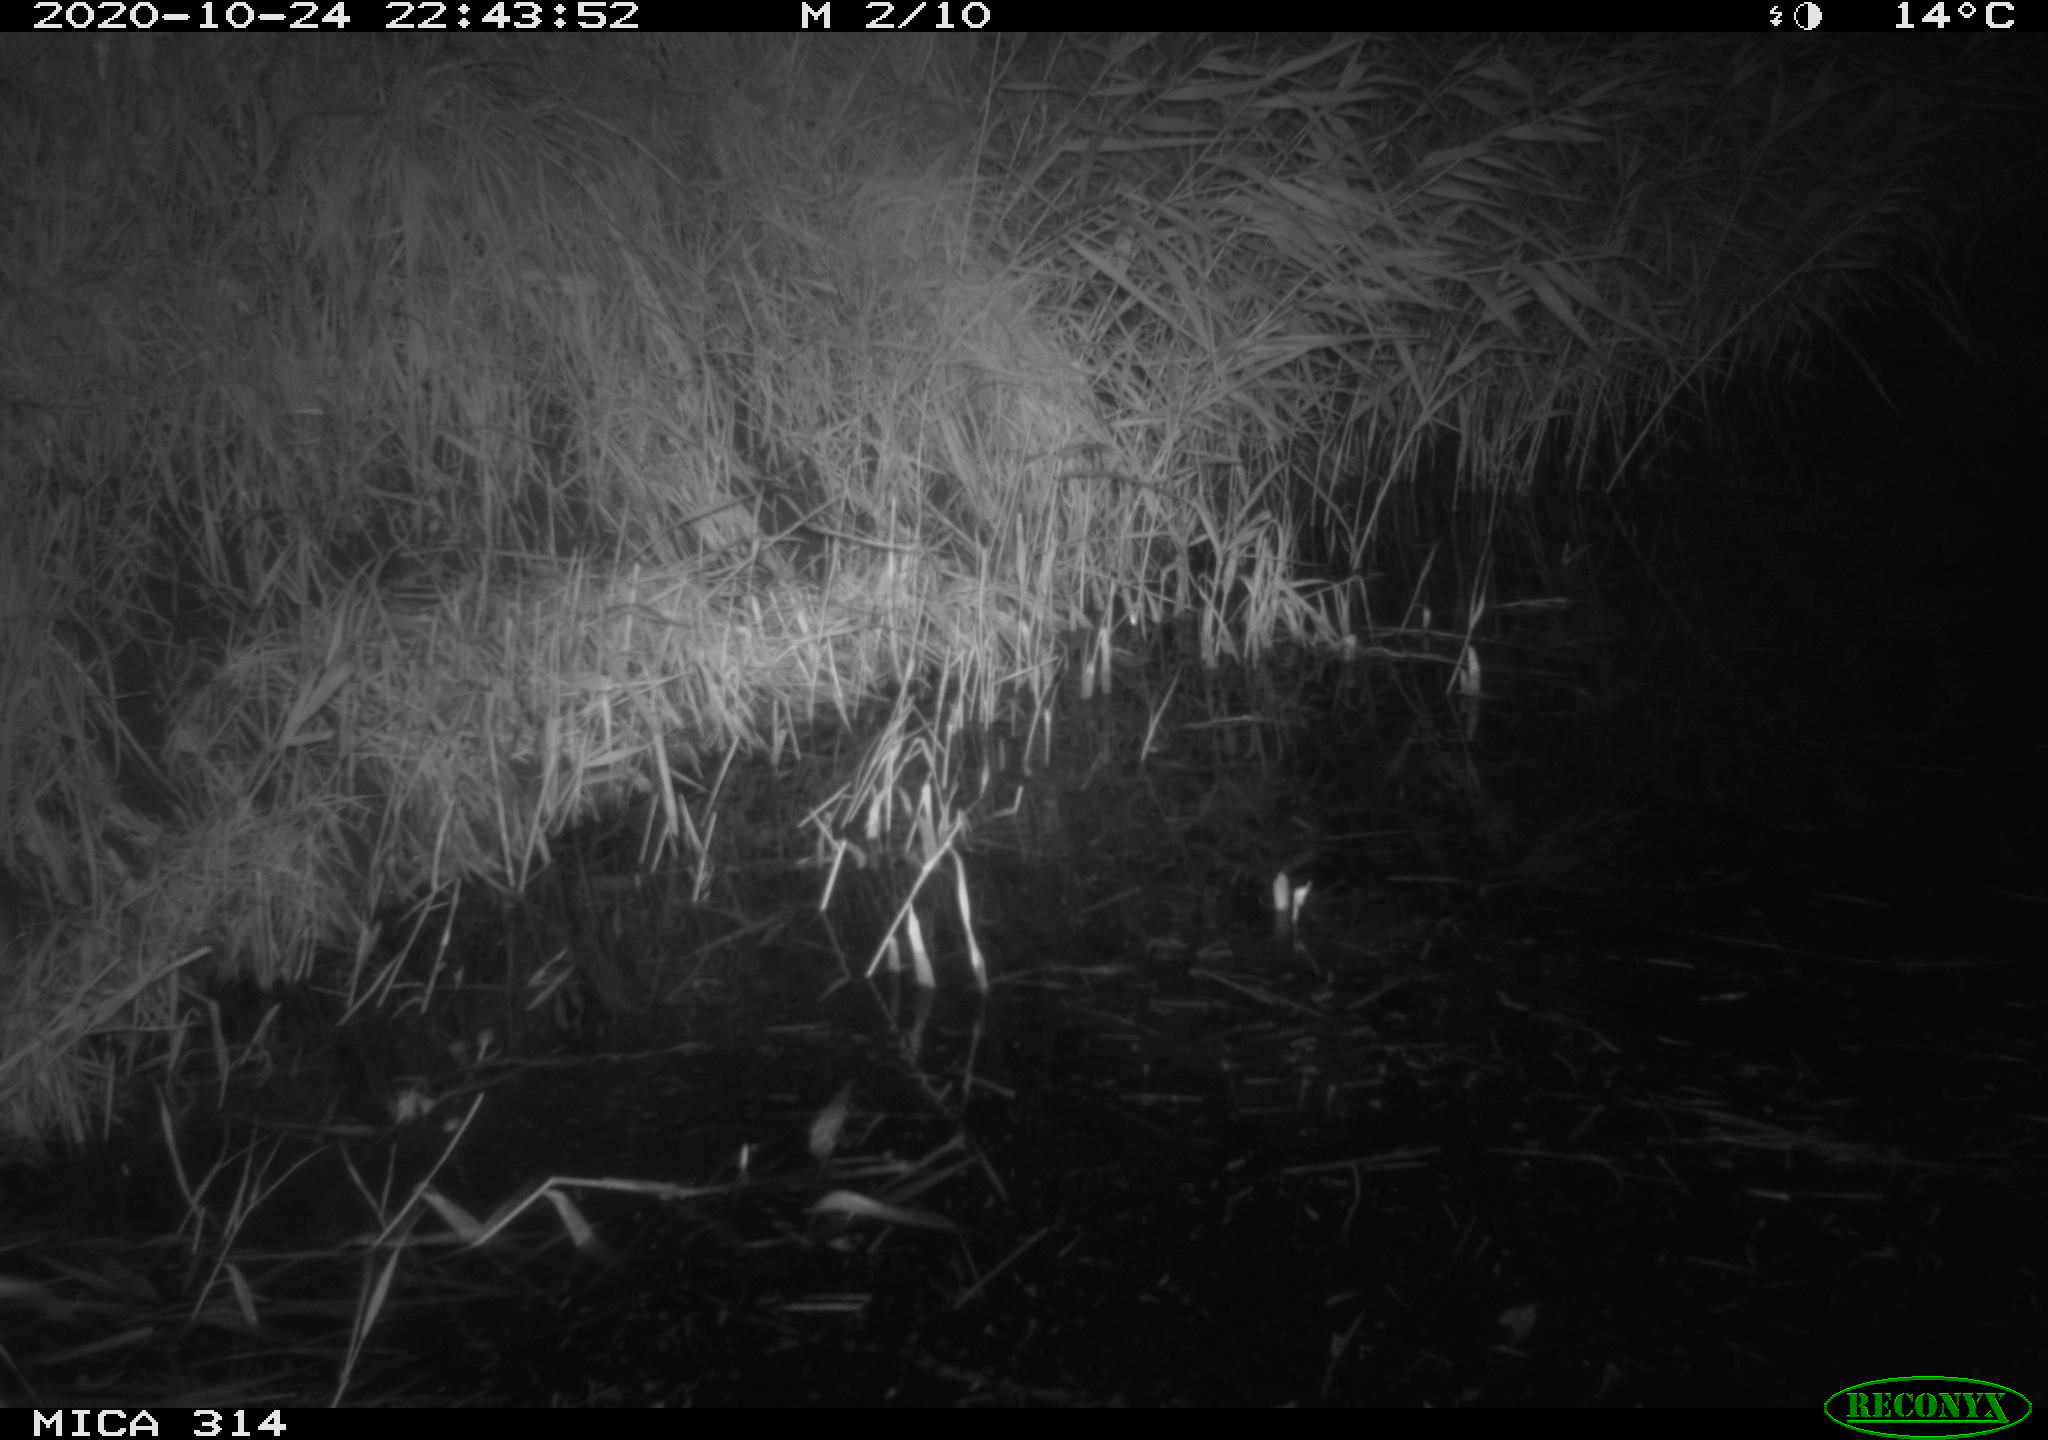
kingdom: Animalia
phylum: Chordata
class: Mammalia
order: Rodentia
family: Muridae
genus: Rattus
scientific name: Rattus norvegicus
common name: Brown rat
